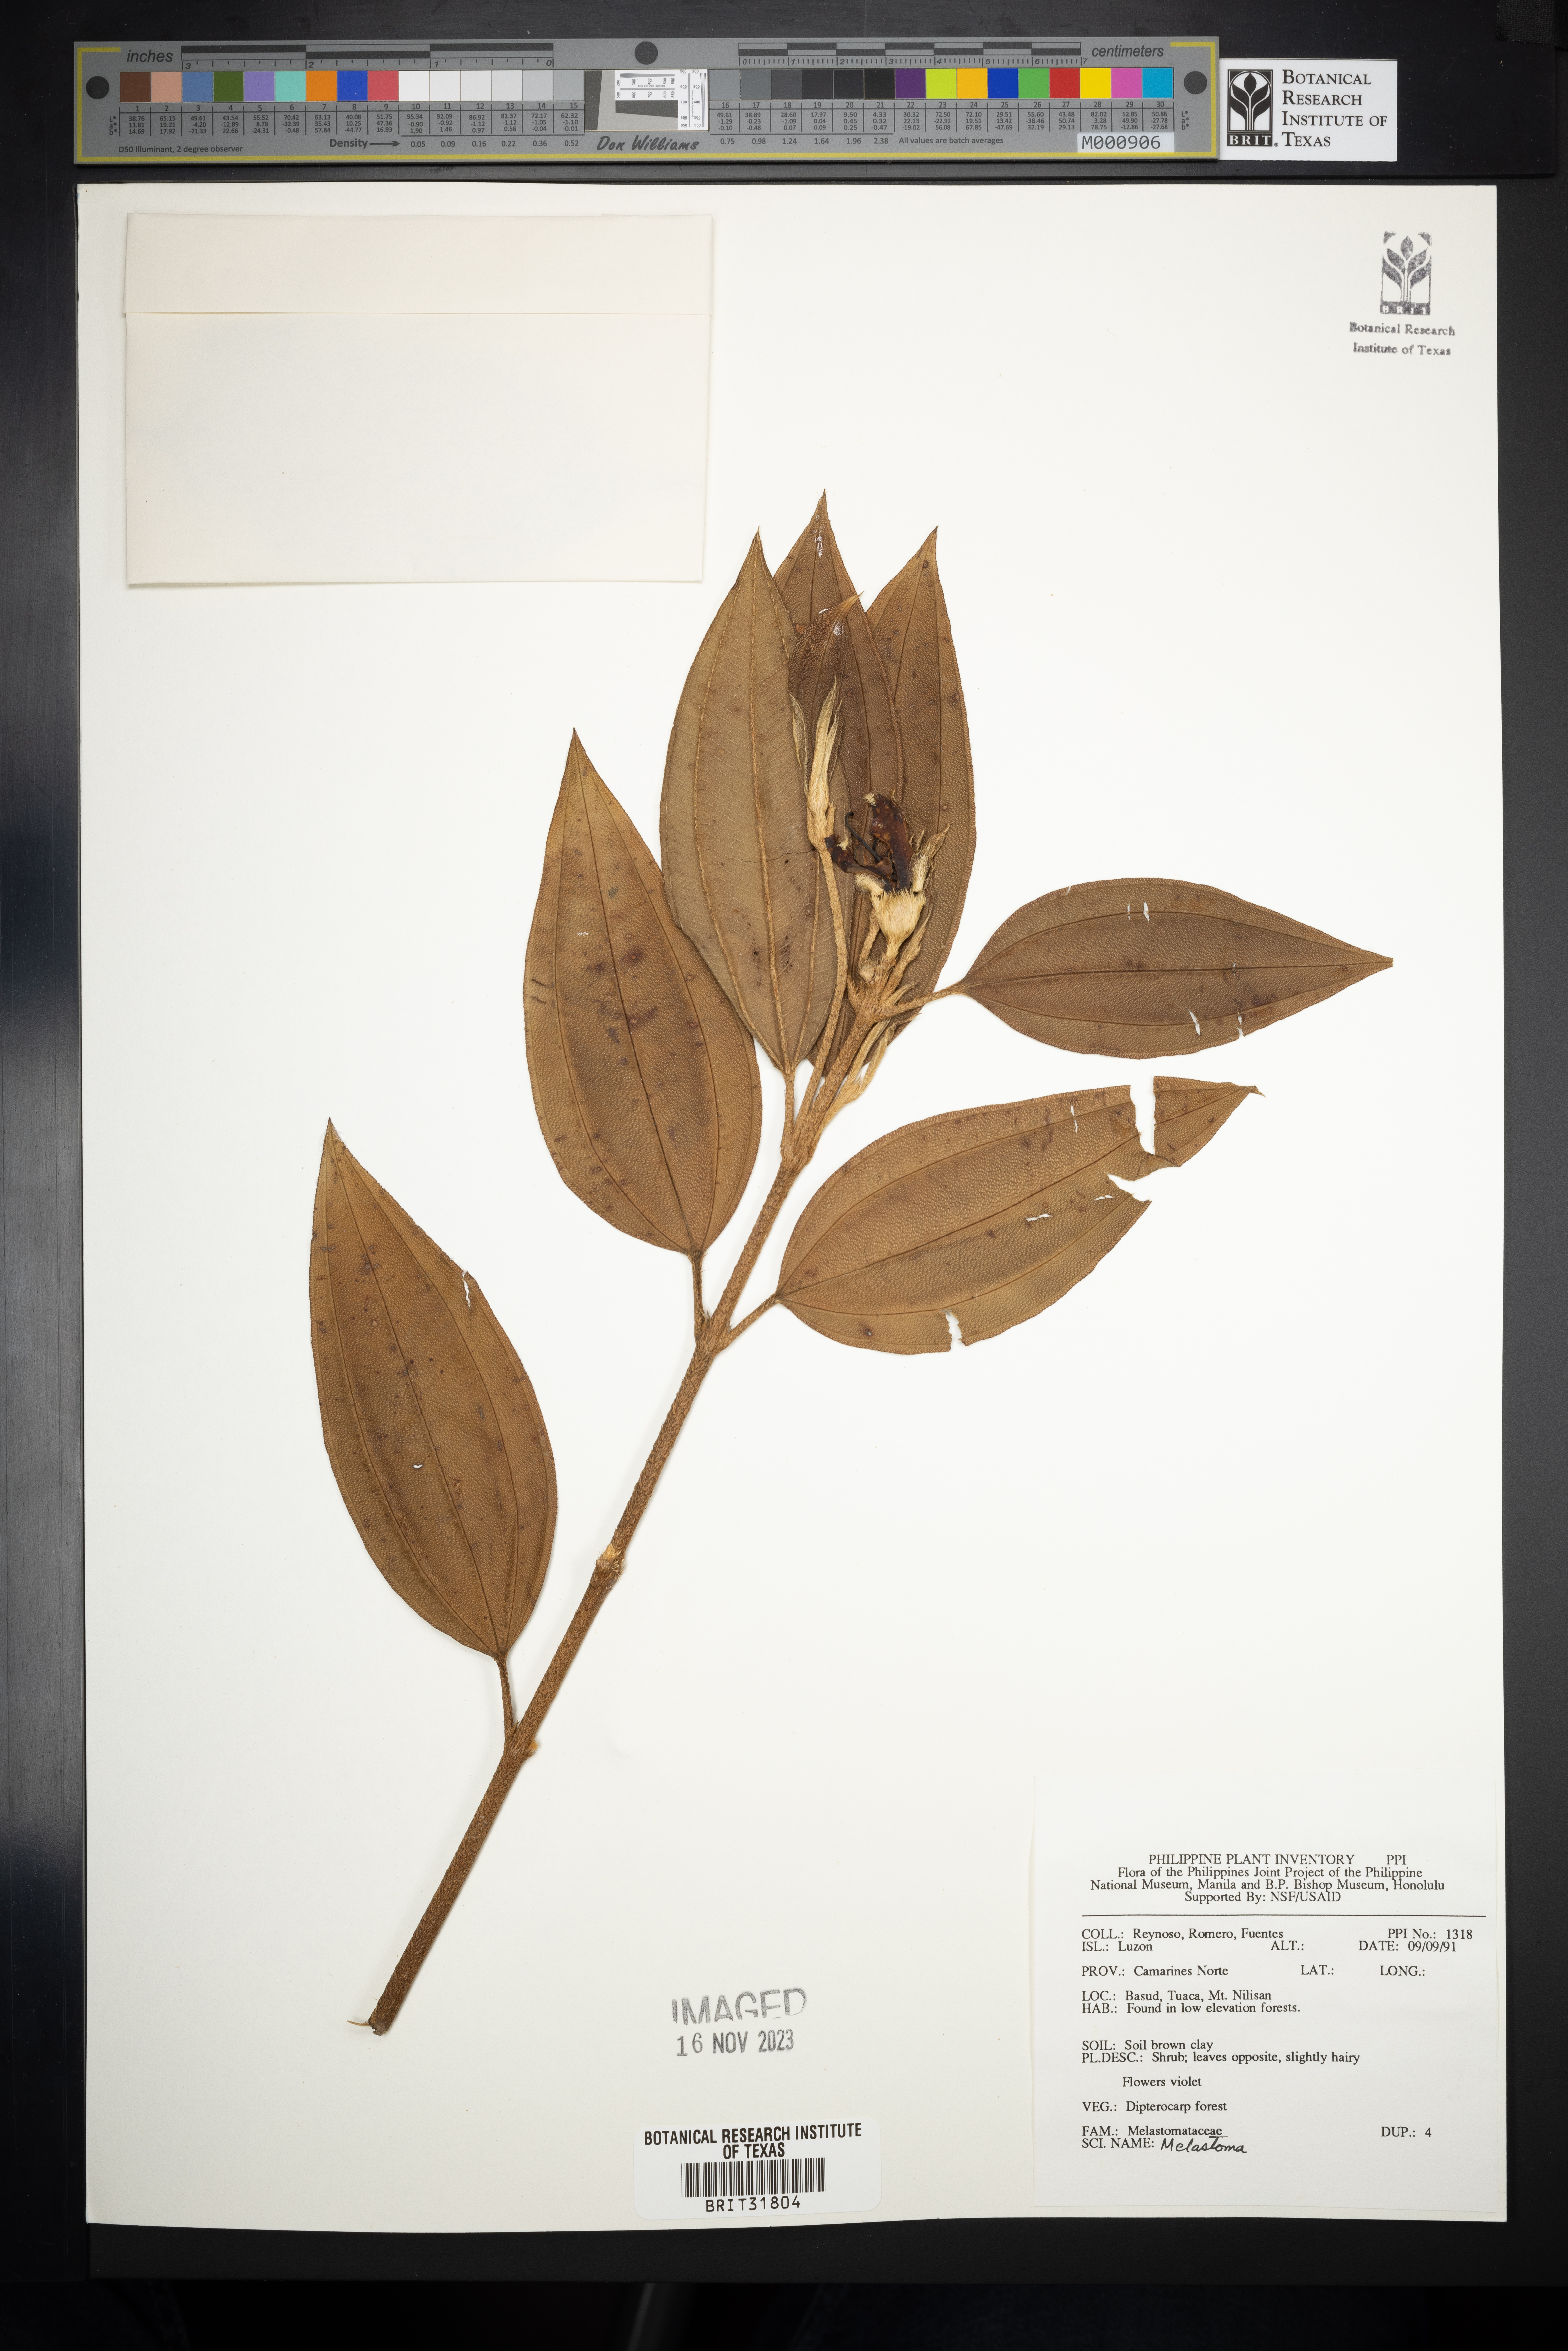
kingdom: Plantae
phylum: Tracheophyta
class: Magnoliopsida
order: Myrtales
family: Melastomataceae
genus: Melastoma
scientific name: Melastoma
